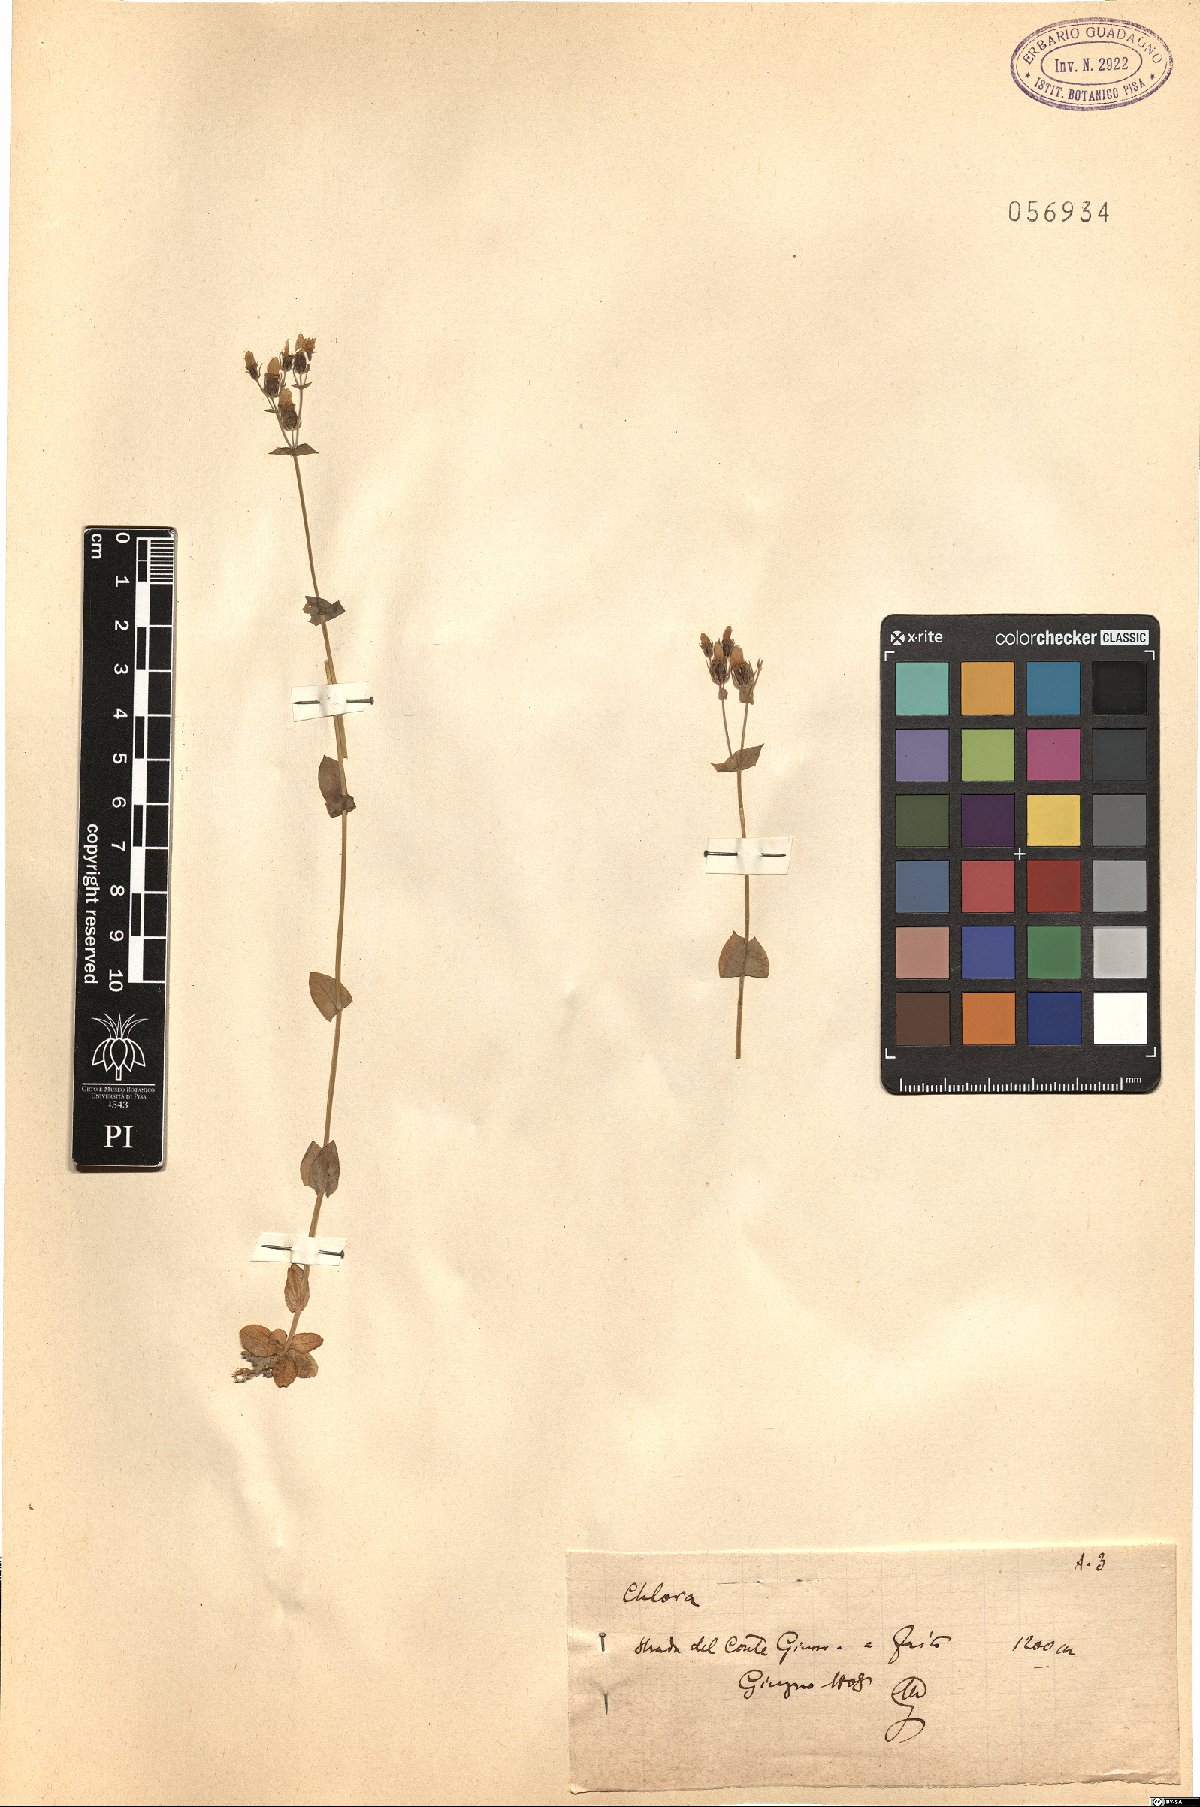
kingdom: Plantae
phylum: Tracheophyta
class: Magnoliopsida
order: Gentianales
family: Gentianaceae
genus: Blackstonia
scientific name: Blackstonia
